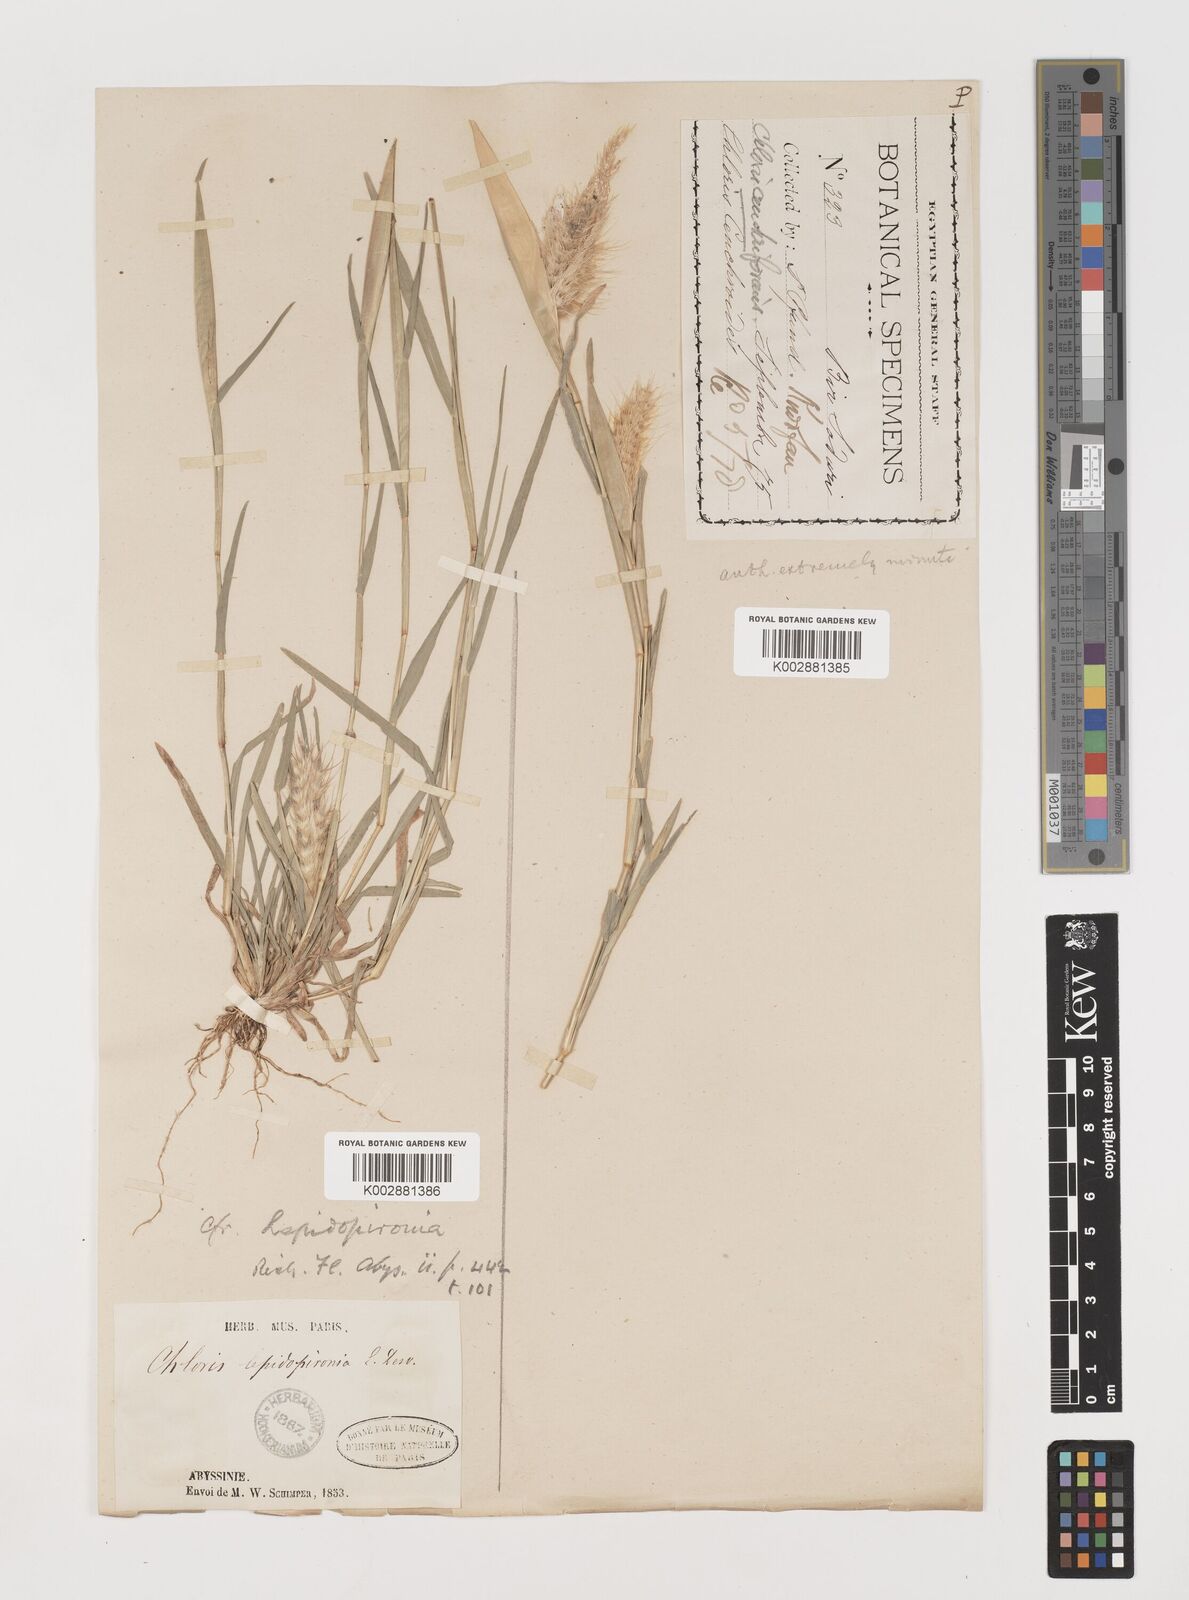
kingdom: Plantae
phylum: Tracheophyta
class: Liliopsida
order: Poales
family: Poaceae
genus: Tetrapogon
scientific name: Tetrapogon cenchriformis
